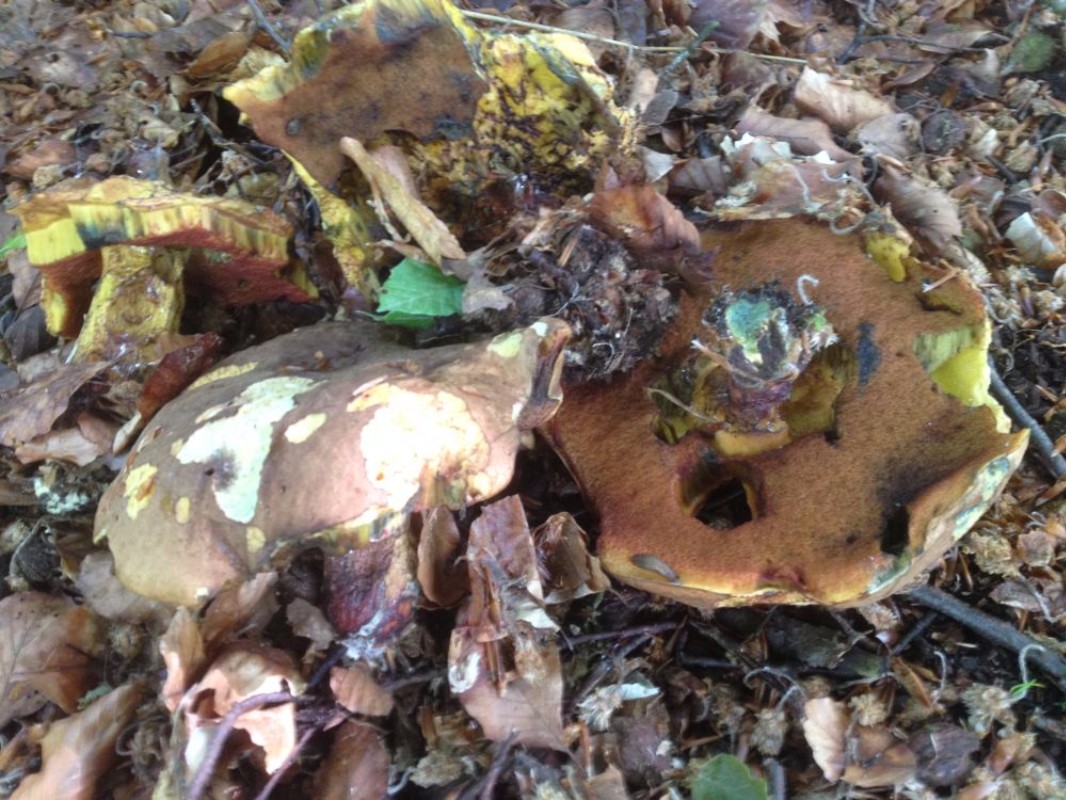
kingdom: Fungi
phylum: Basidiomycota
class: Agaricomycetes
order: Boletales
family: Boletaceae
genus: Neoboletus
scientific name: Neoboletus erythropus
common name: punktstokket indigorørhat
